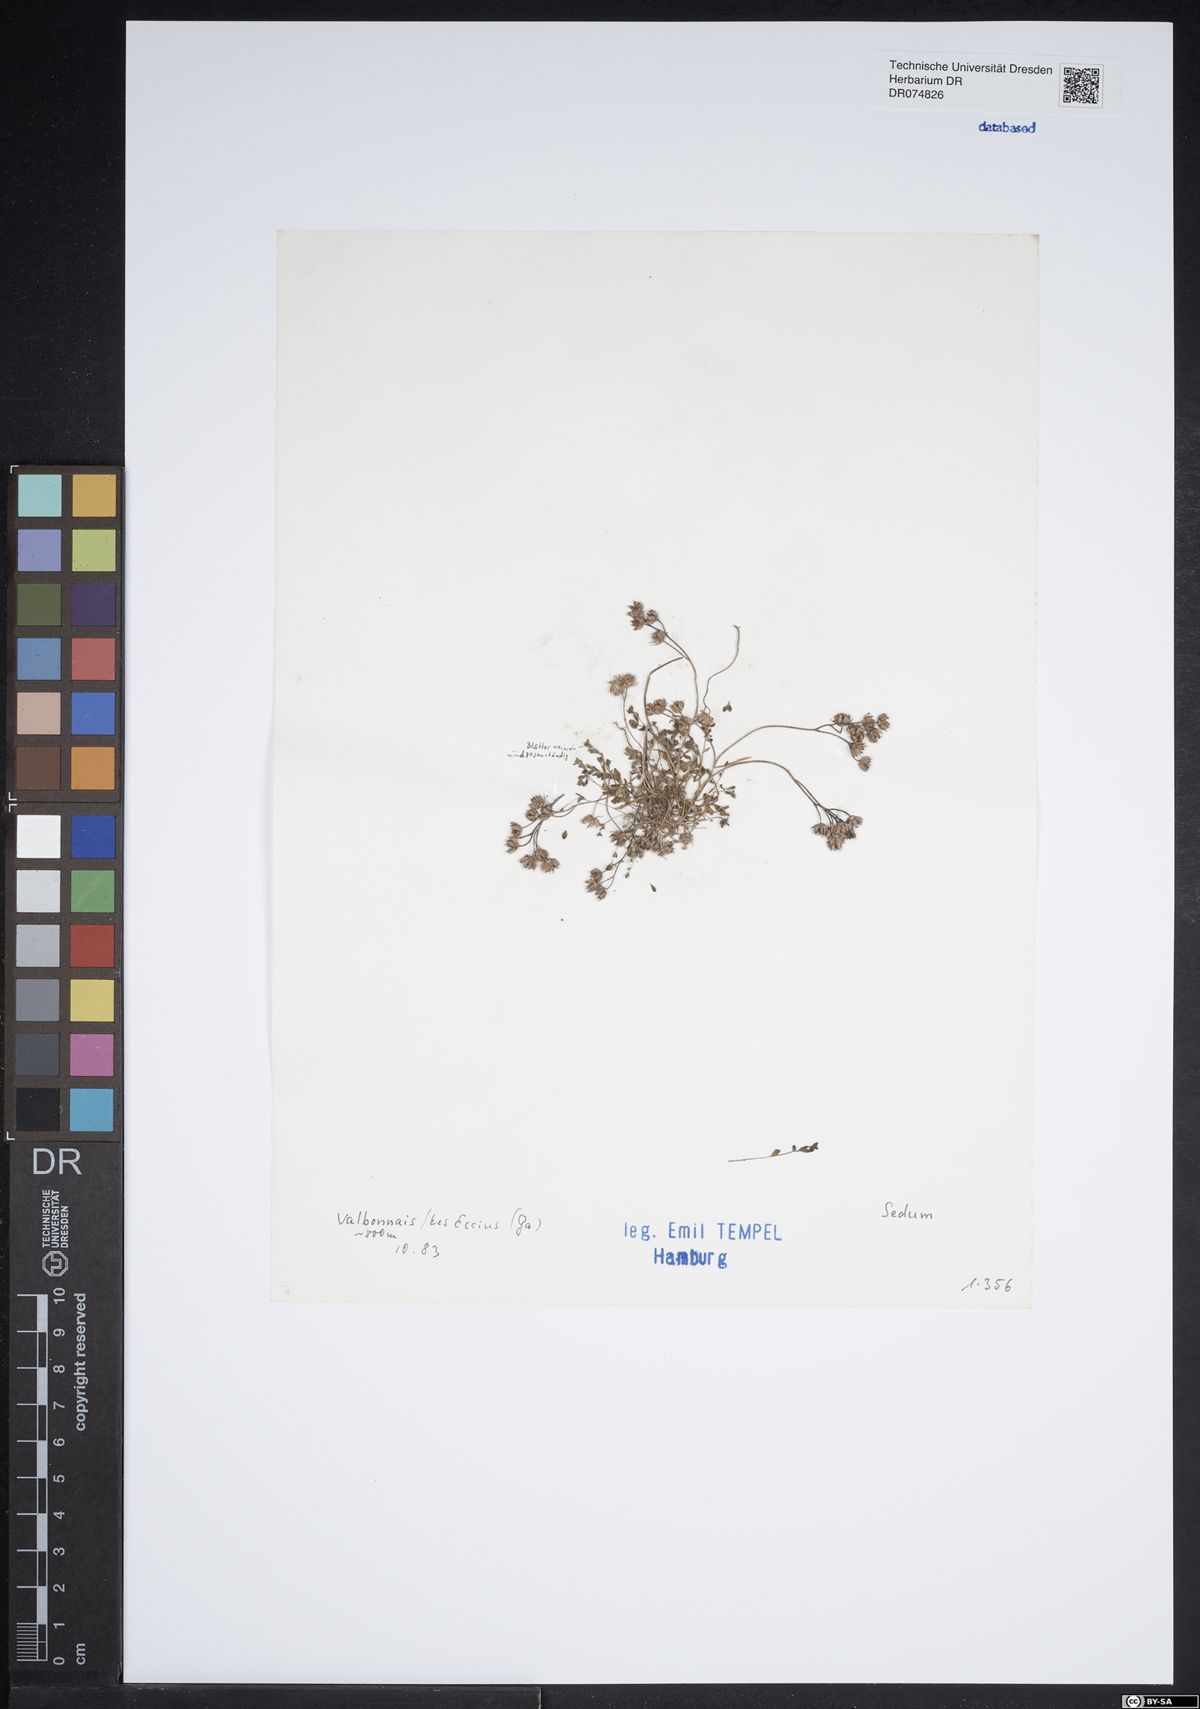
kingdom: Plantae
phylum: Tracheophyta
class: Magnoliopsida
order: Saxifragales
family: Crassulaceae
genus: Sedum
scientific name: Sedum
